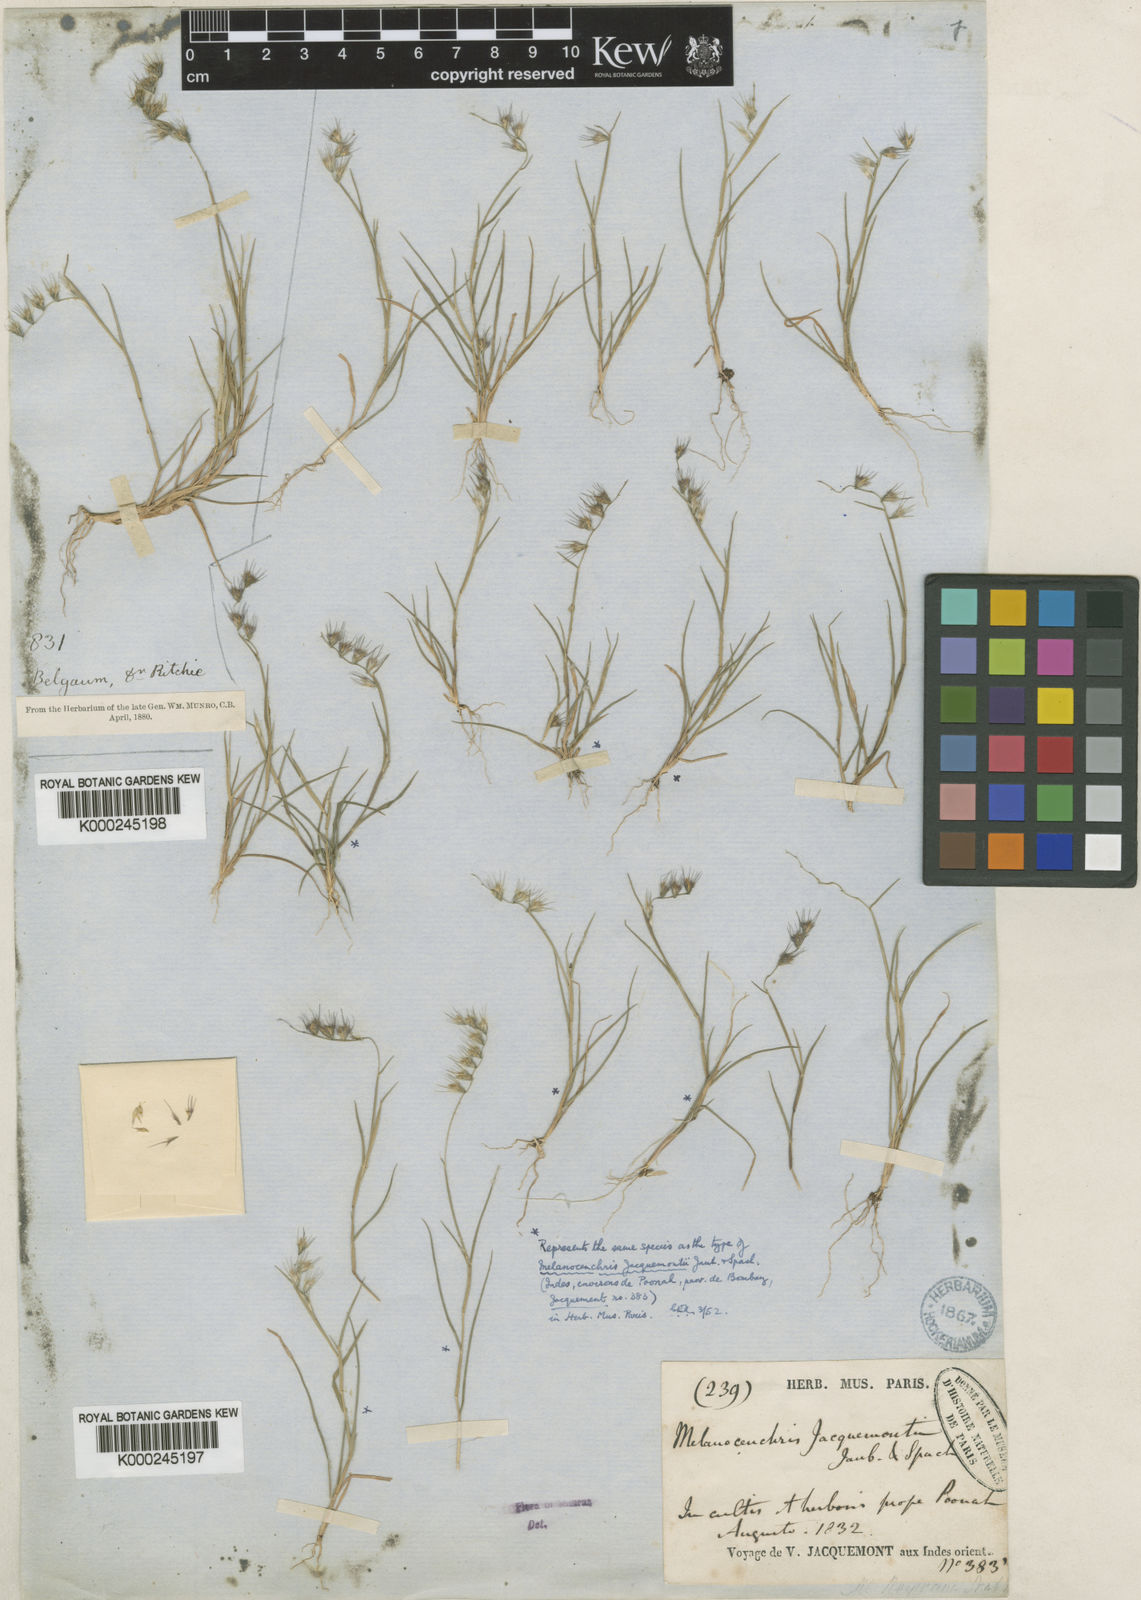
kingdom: Plantae
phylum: Tracheophyta
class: Liliopsida
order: Poales
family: Poaceae
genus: Melanocenchris
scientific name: Melanocenchris jacquemontii
